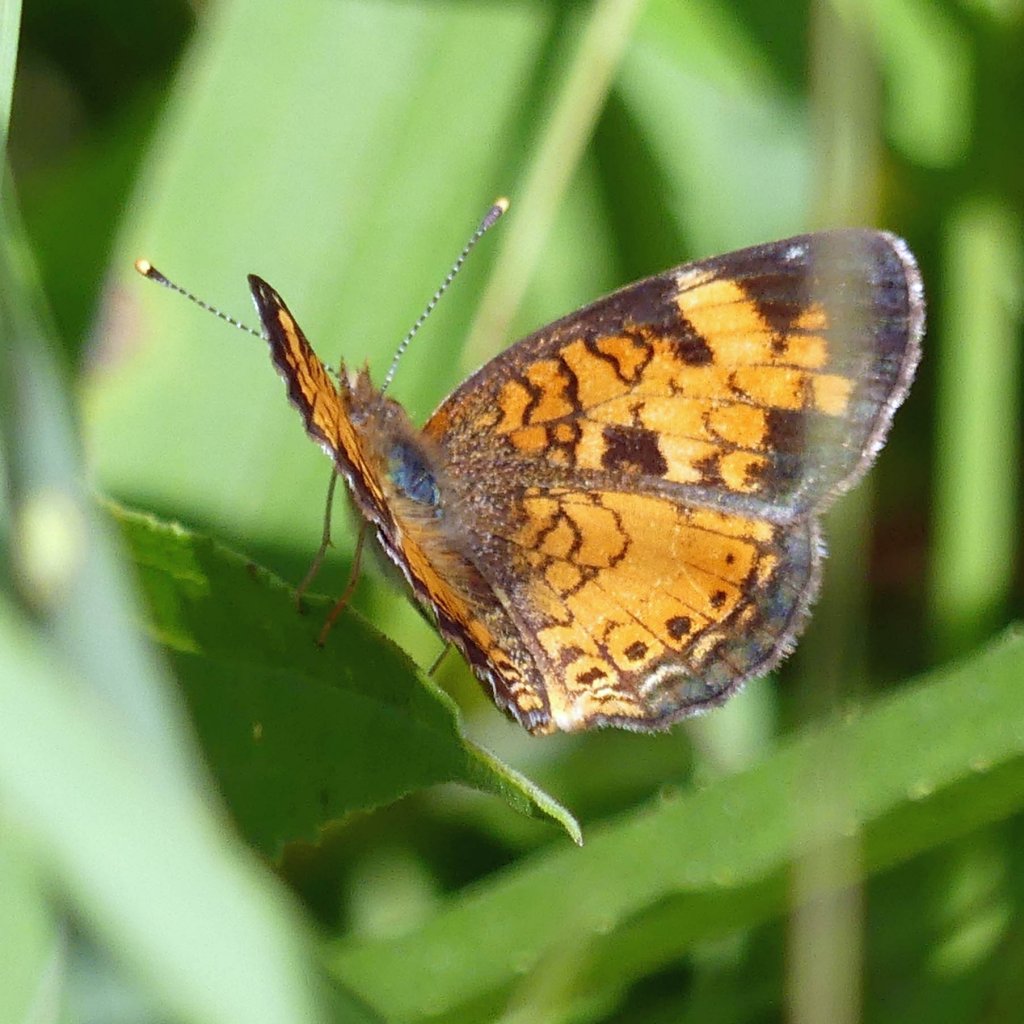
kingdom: Animalia
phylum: Arthropoda
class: Insecta
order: Lepidoptera
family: Nymphalidae
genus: Phyciodes
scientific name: Phyciodes tharos
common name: Northern Crescent
